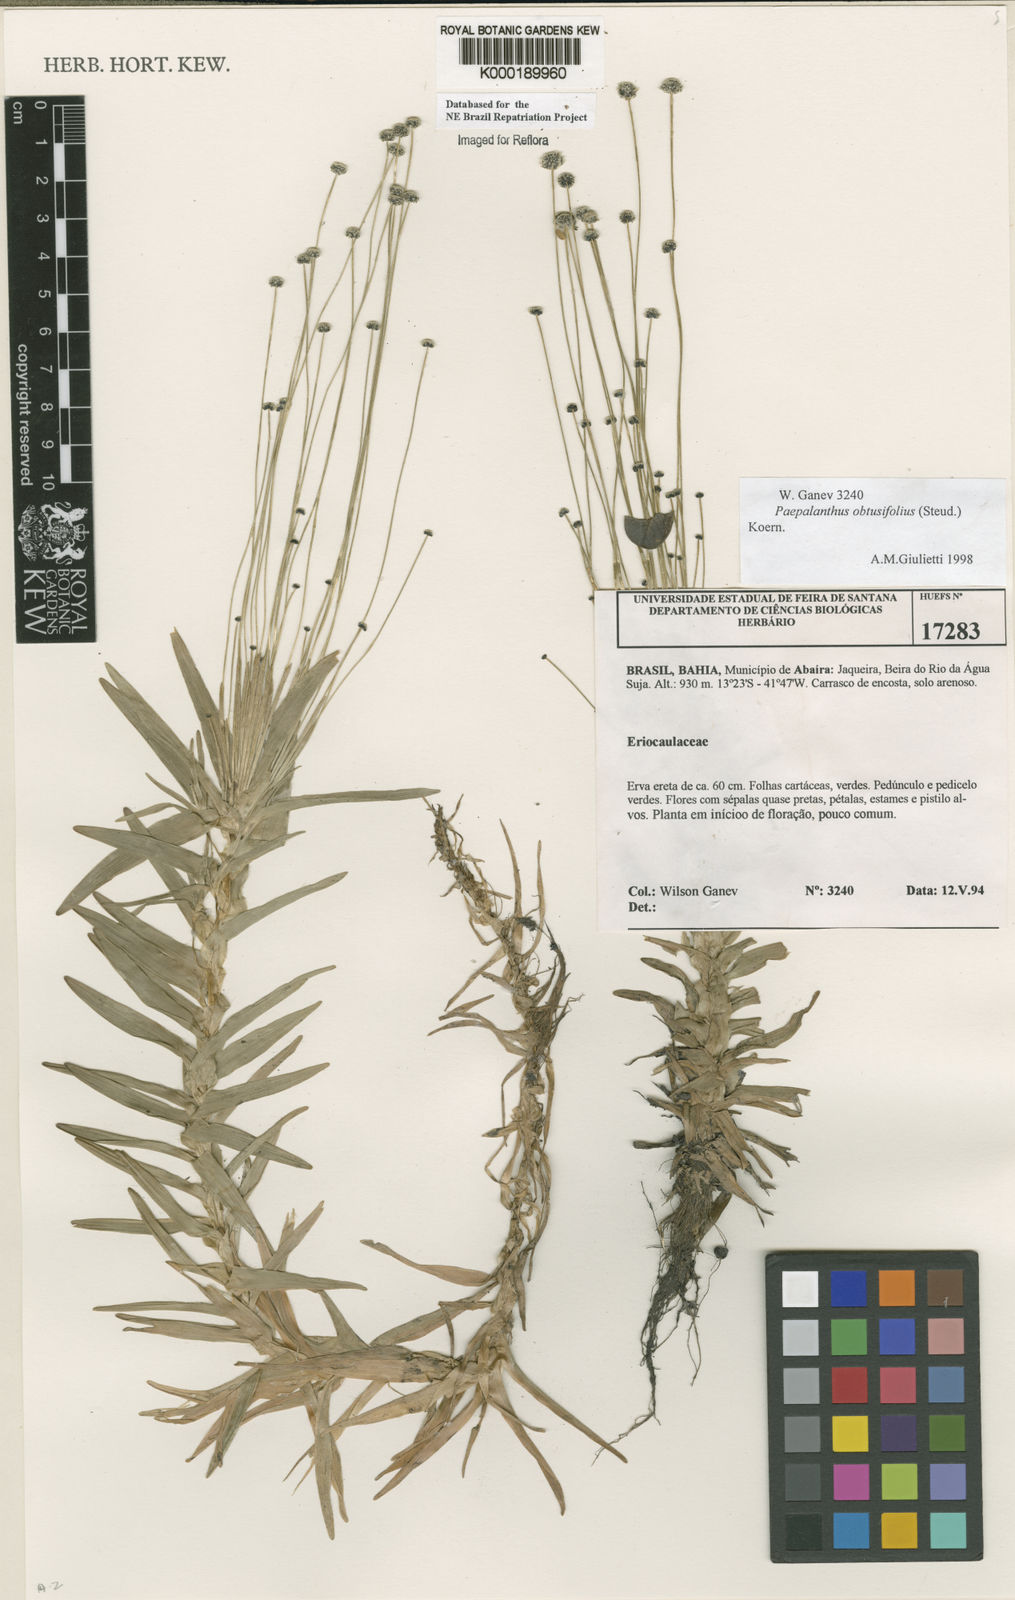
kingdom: Plantae
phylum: Tracheophyta
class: Liliopsida
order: Poales
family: Eriocaulaceae
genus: Paepalanthus
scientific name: Paepalanthus
